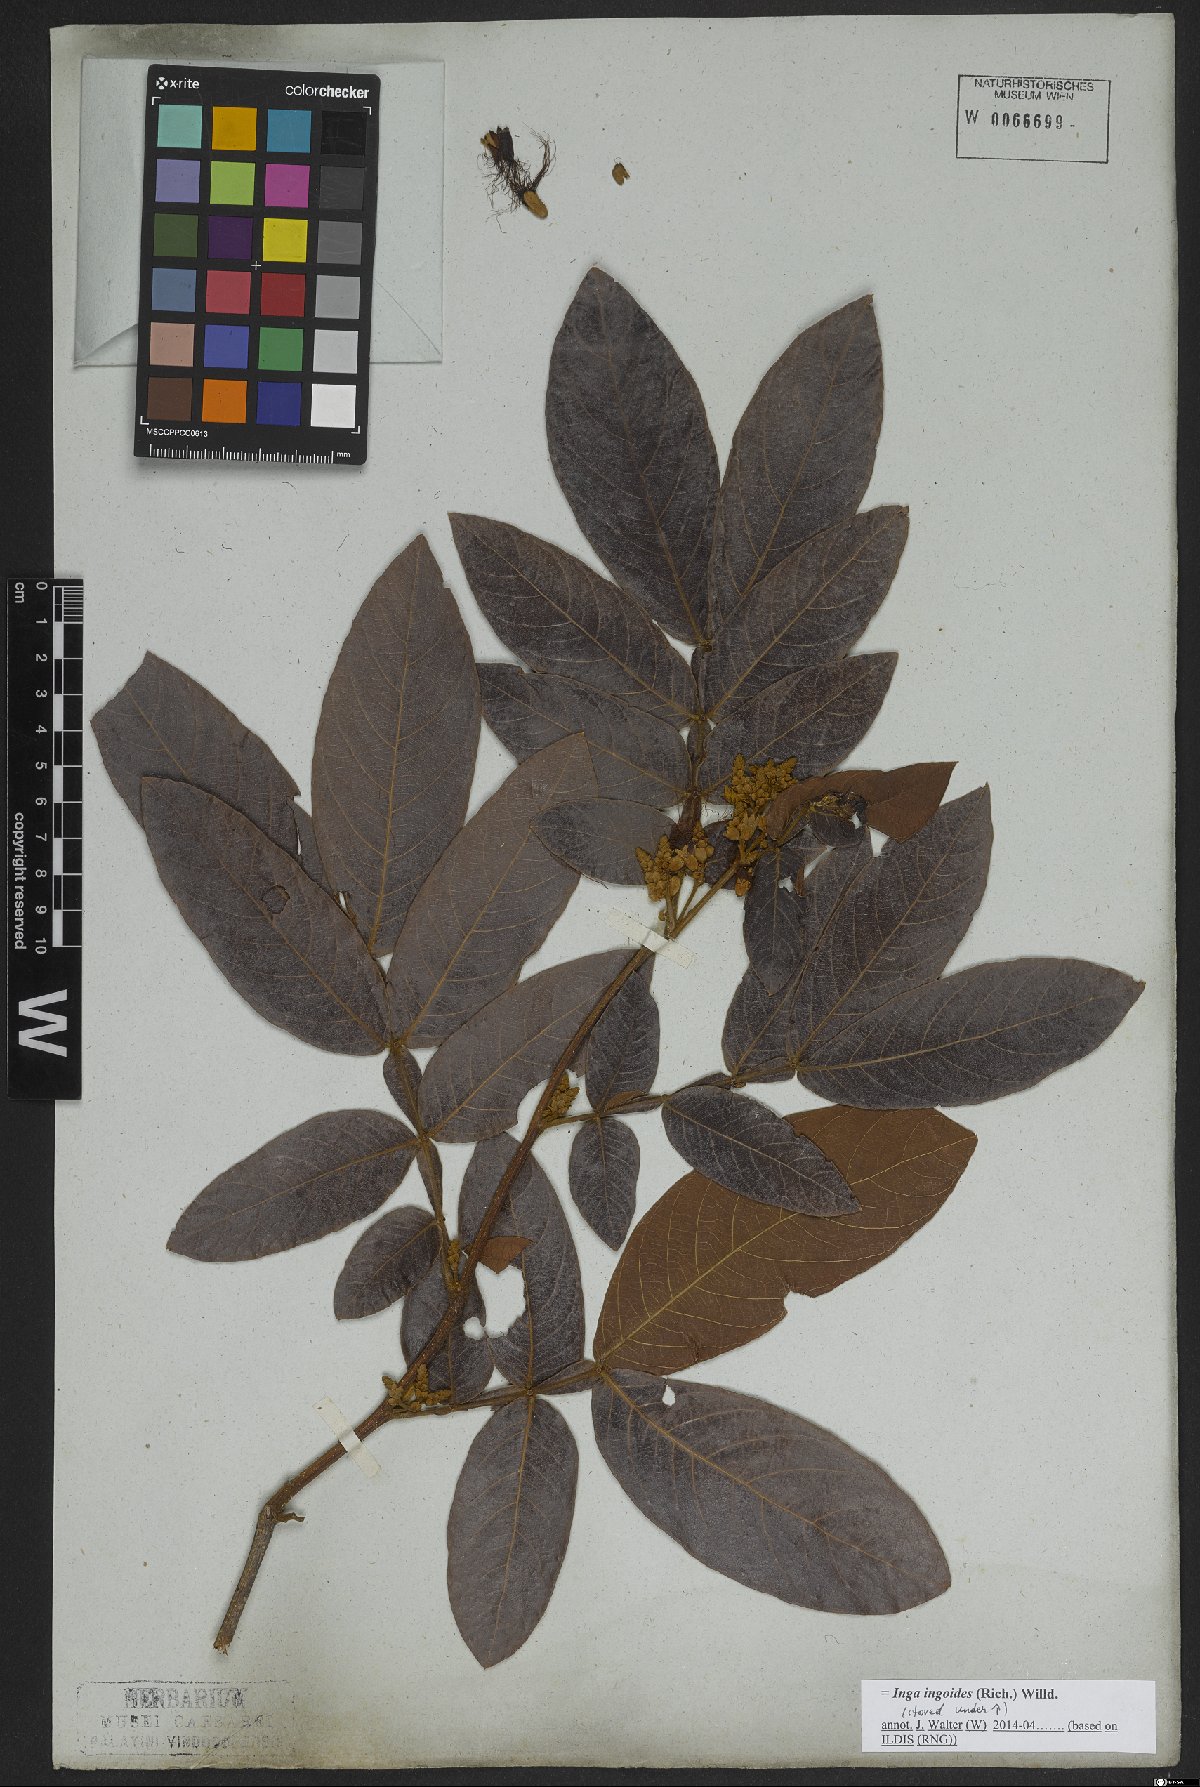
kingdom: Plantae
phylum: Tracheophyta
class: Magnoliopsida
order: Fabales
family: Fabaceae
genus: Inga
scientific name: Inga ingoides
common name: Spanish ash
